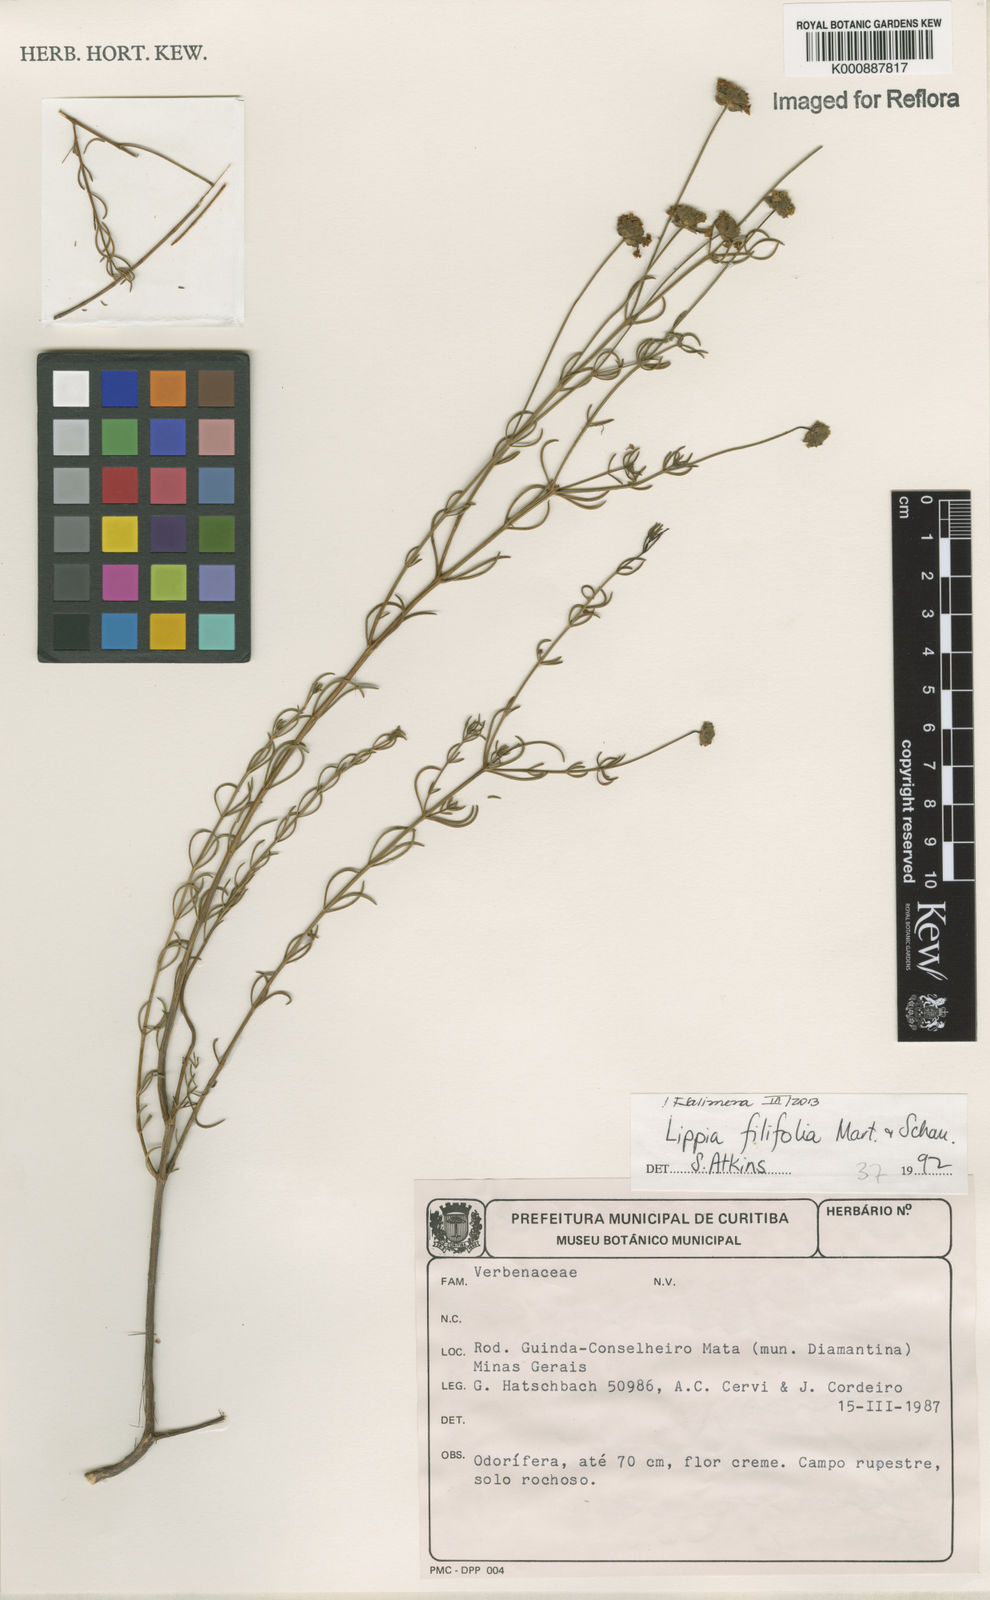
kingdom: Plantae
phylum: Tracheophyta
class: Magnoliopsida
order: Lamiales
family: Verbenaceae
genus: Lippia
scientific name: Lippia filifolia
